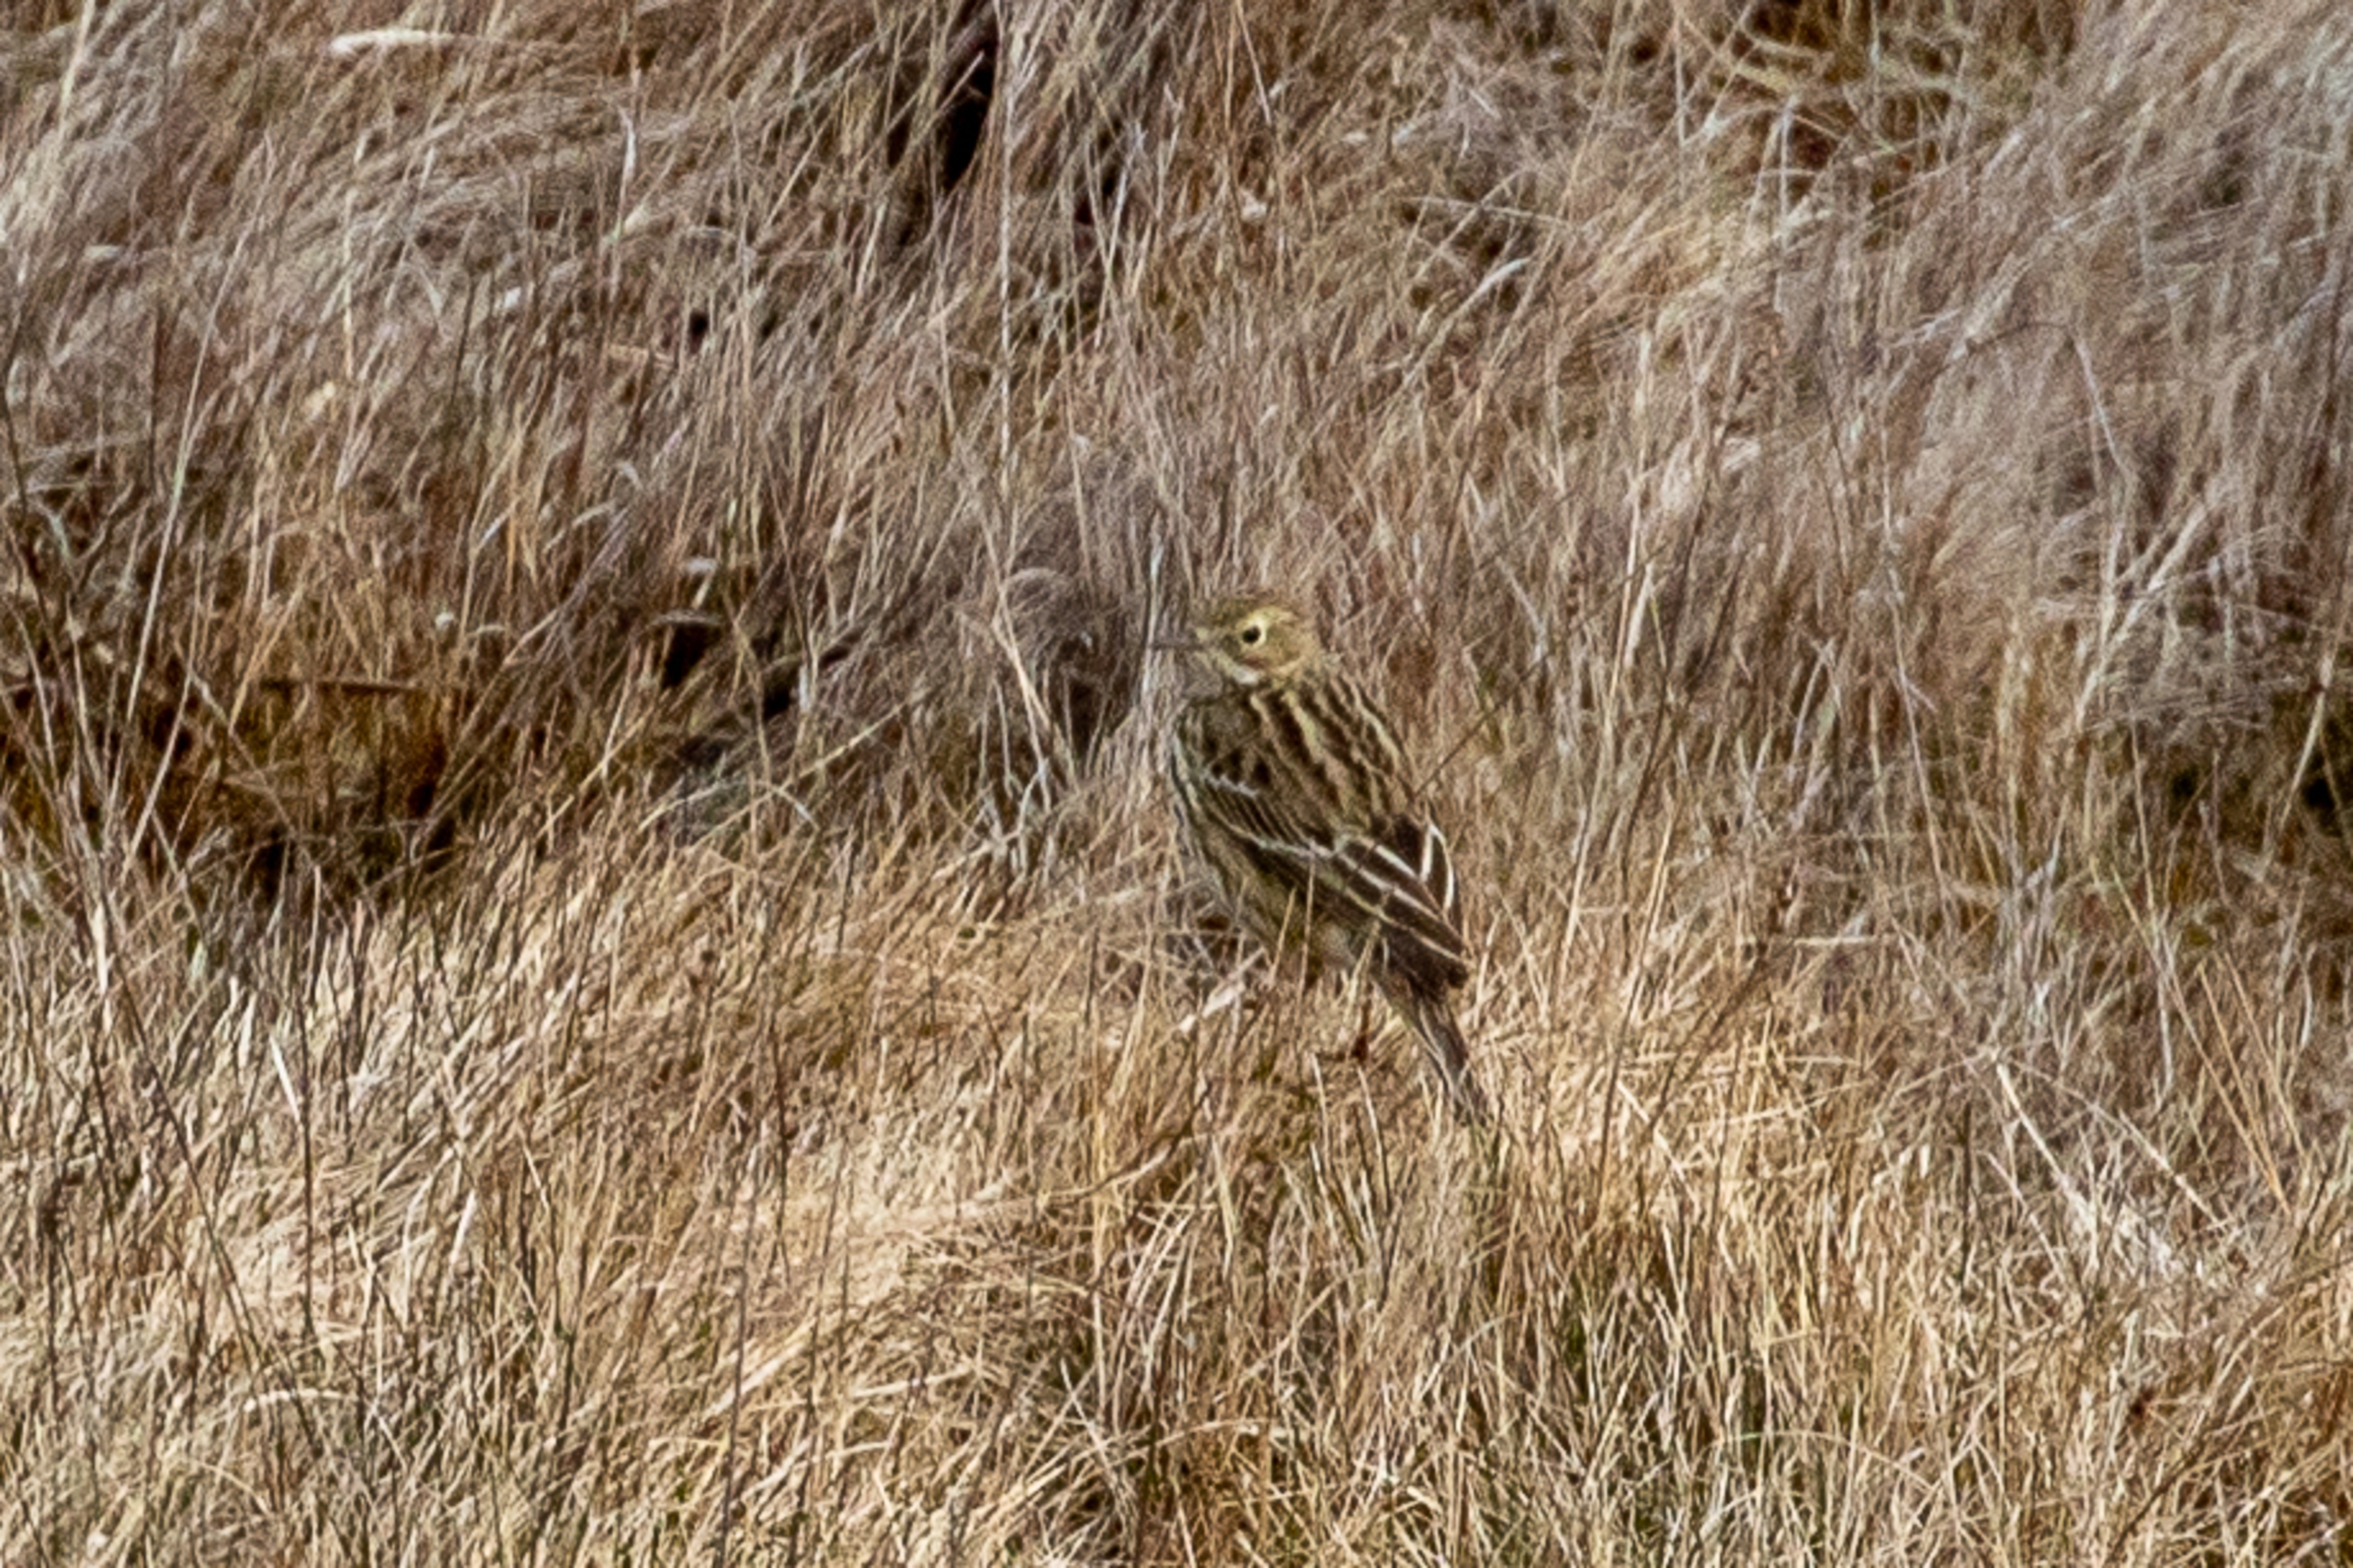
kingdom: Animalia
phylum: Chordata
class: Aves
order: Passeriformes
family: Motacillidae
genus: Anthus
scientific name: Anthus pratensis
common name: Engpiber
